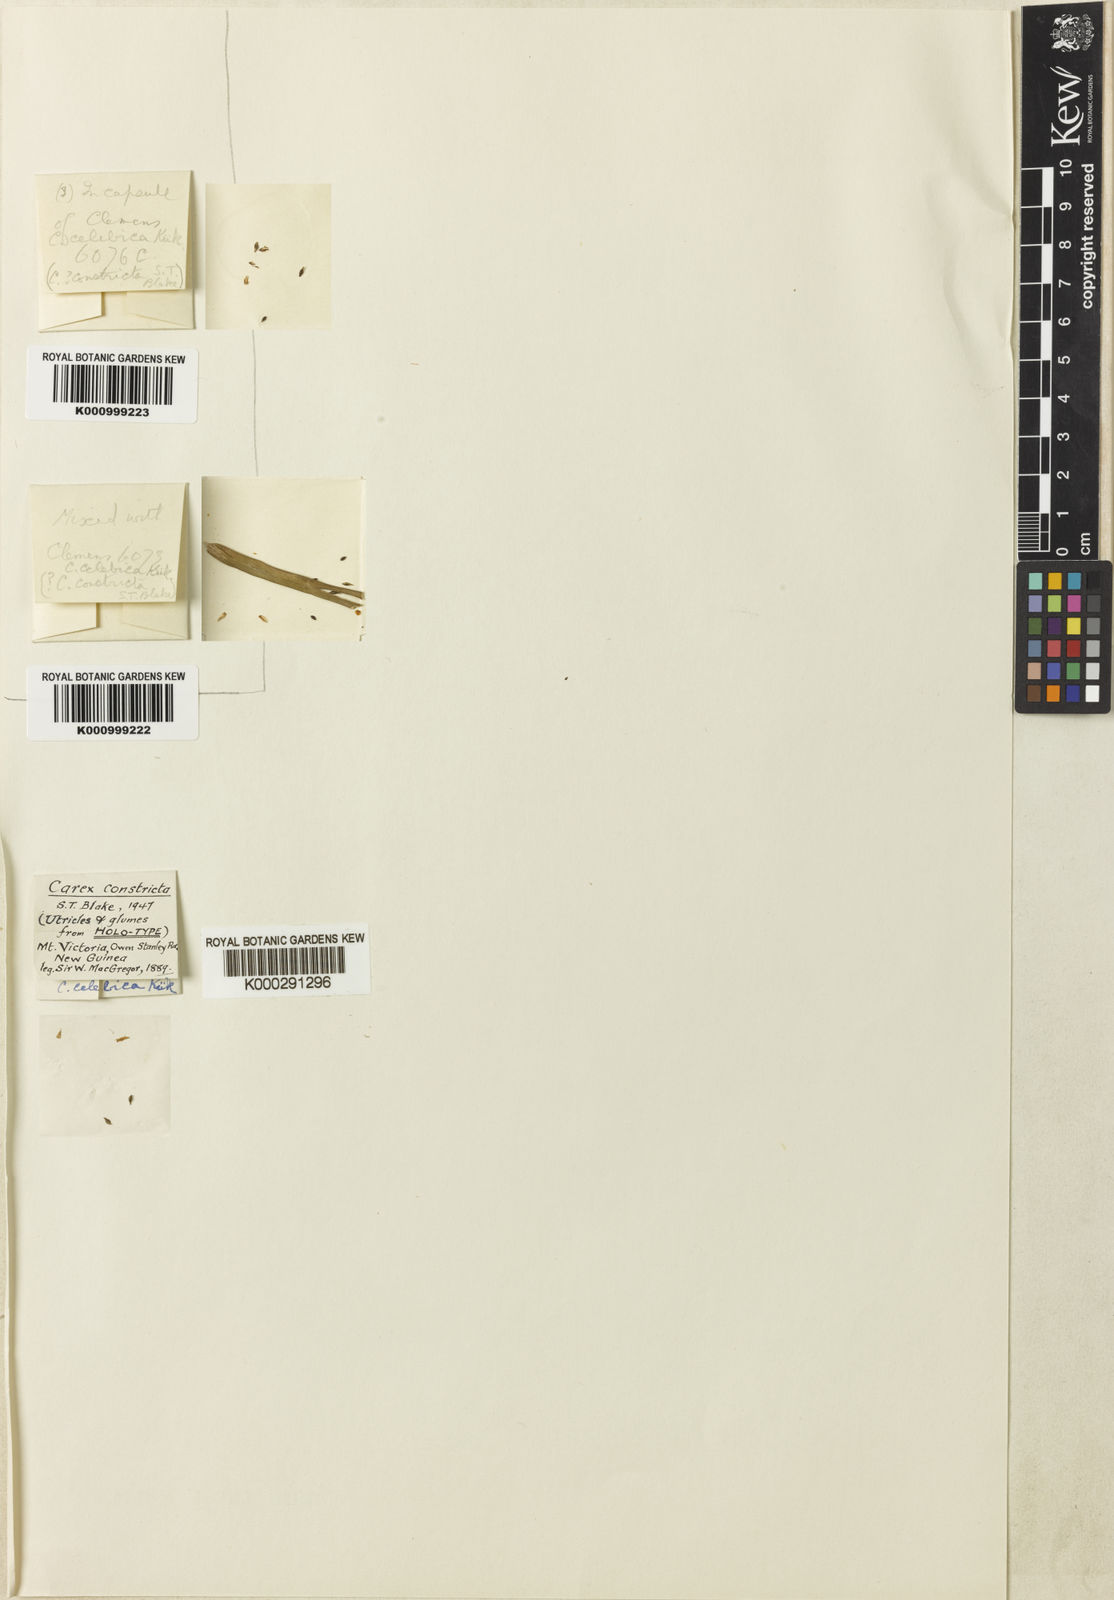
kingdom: Plantae
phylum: Tracheophyta
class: Liliopsida
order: Poales
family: Cyperaceae
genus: Carex
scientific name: Carex
